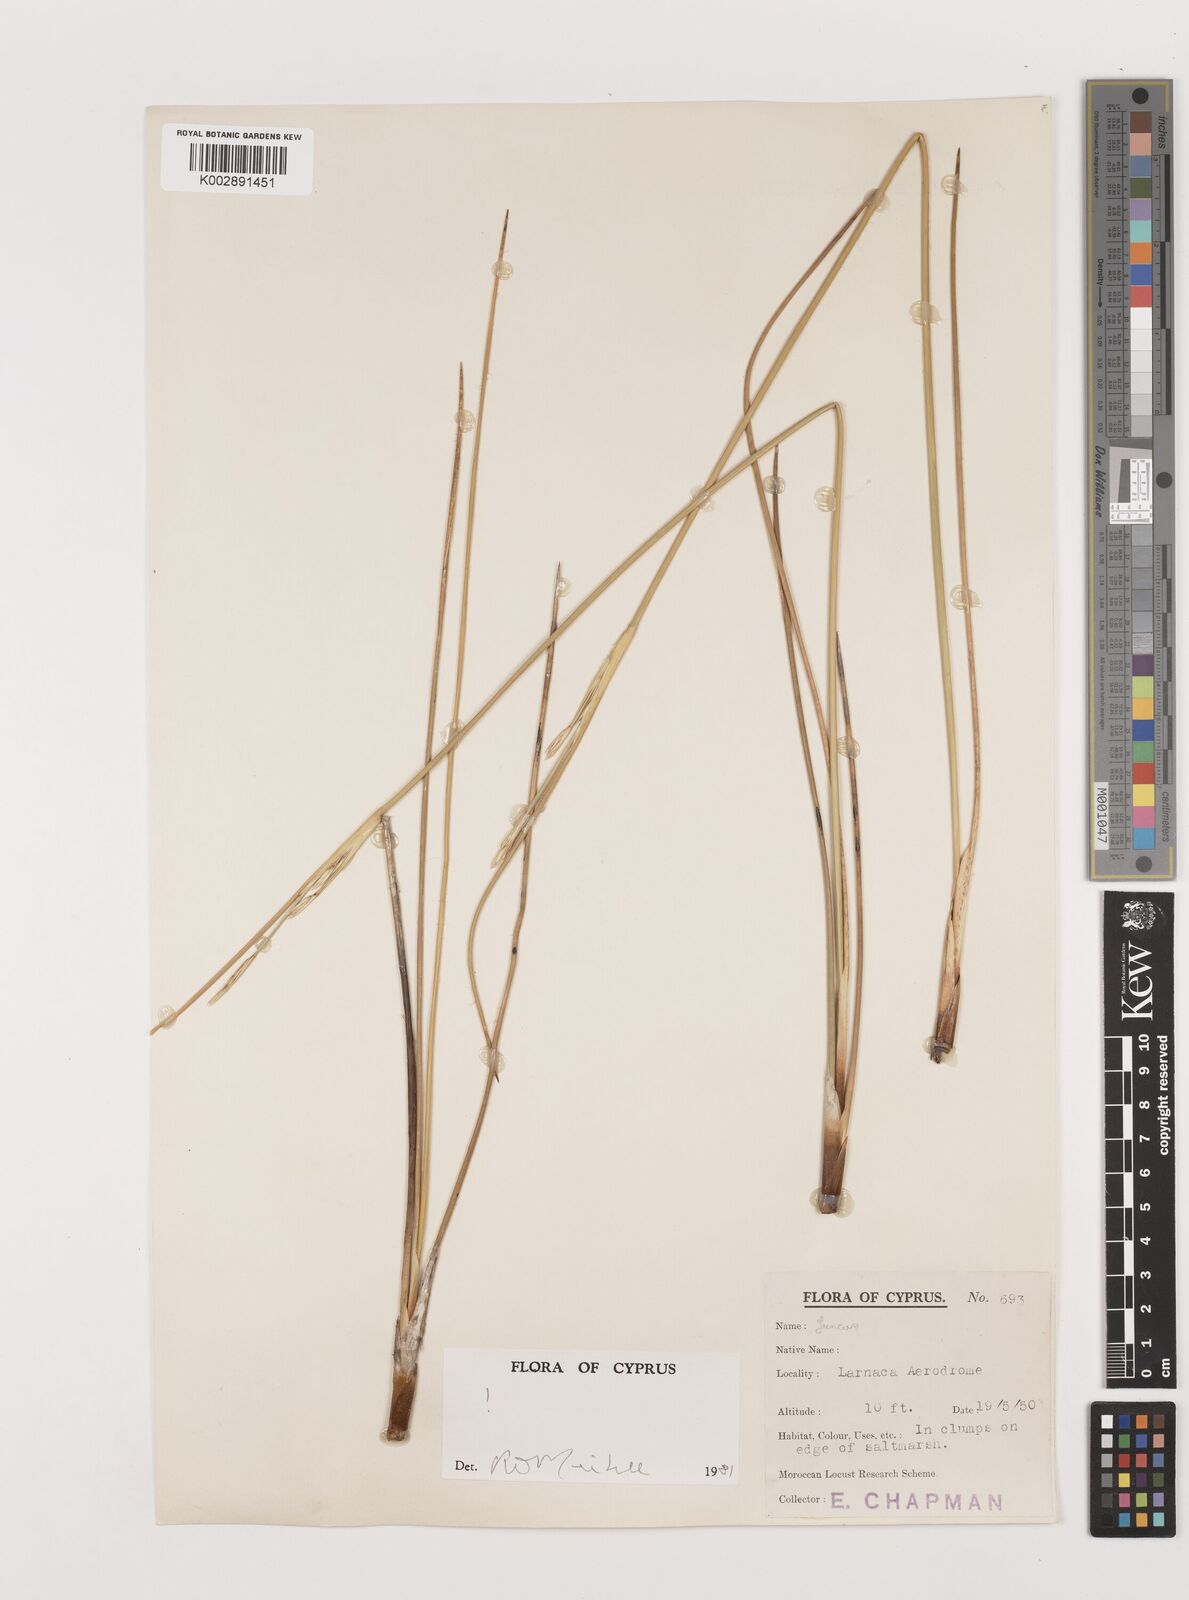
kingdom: Plantae
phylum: Tracheophyta
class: Liliopsida
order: Poales
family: Juncaceae
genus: Juncus
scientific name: Juncus heldreichianus
